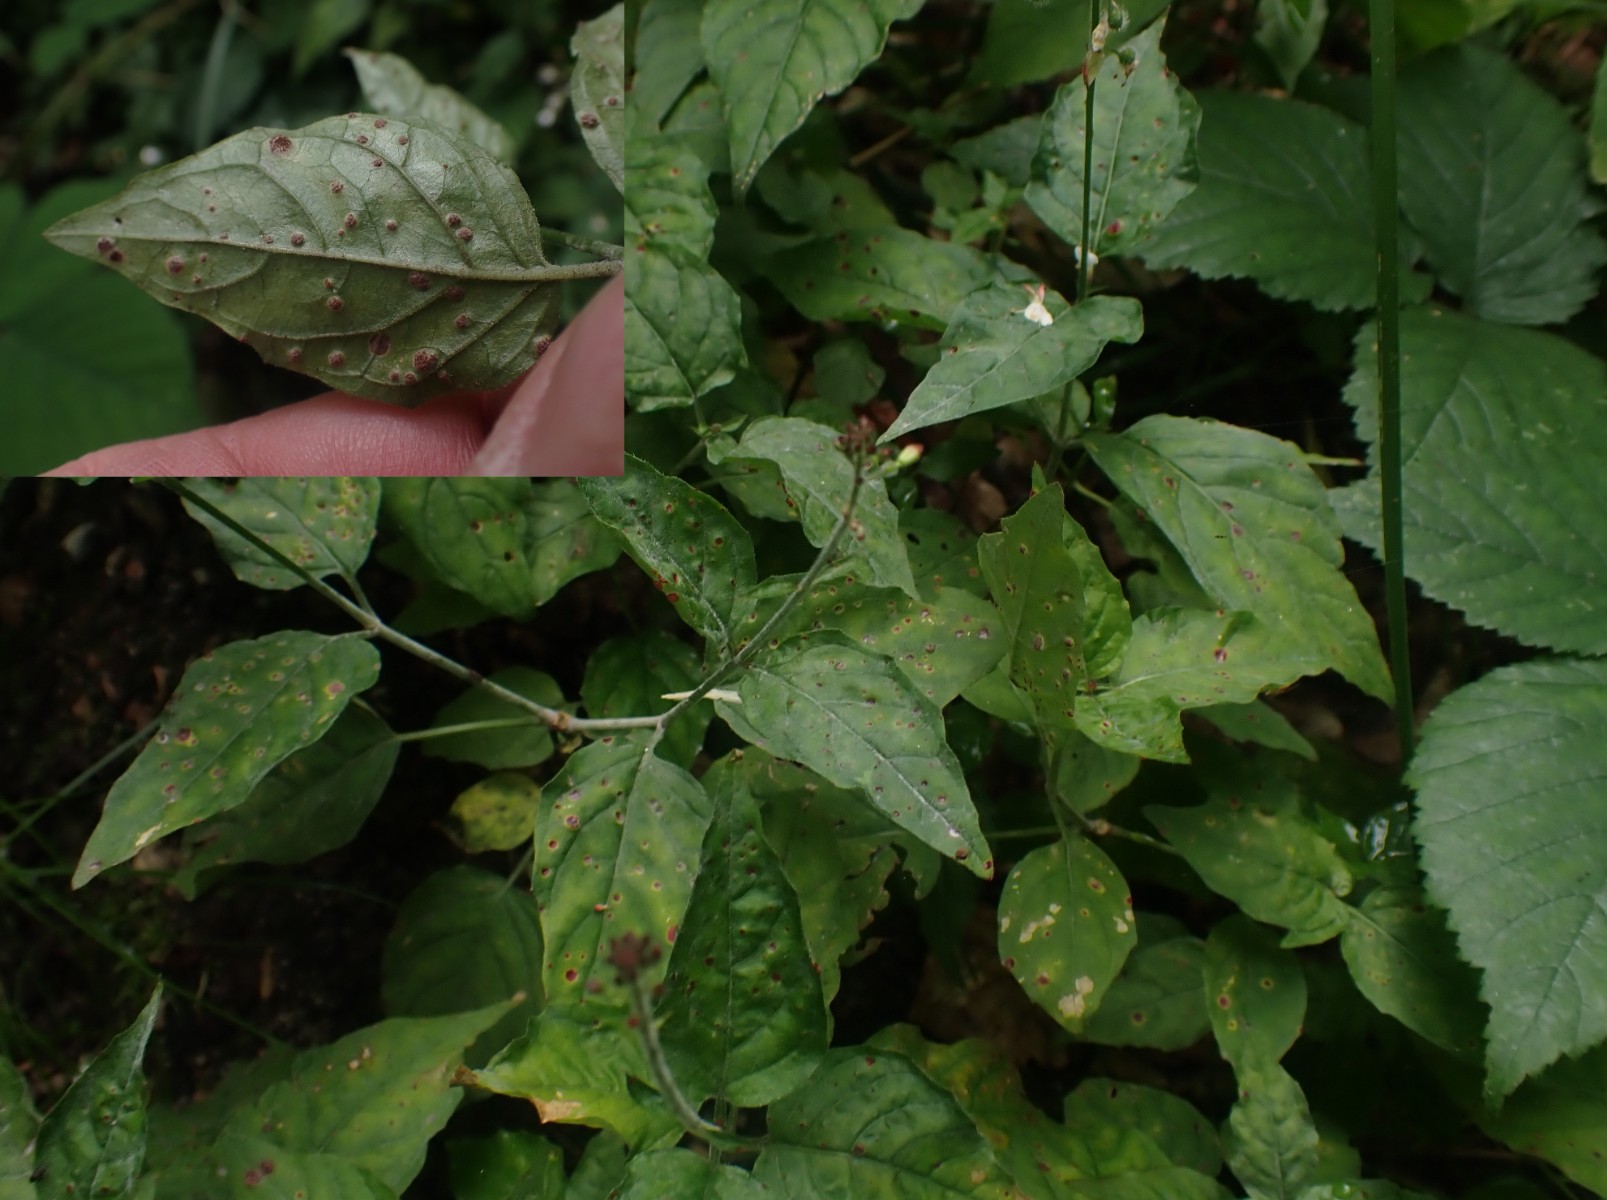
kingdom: Fungi
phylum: Basidiomycota
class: Pucciniomycetes
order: Pucciniales
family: Pucciniaceae
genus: Puccinia
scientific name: Puccinia circaeae
